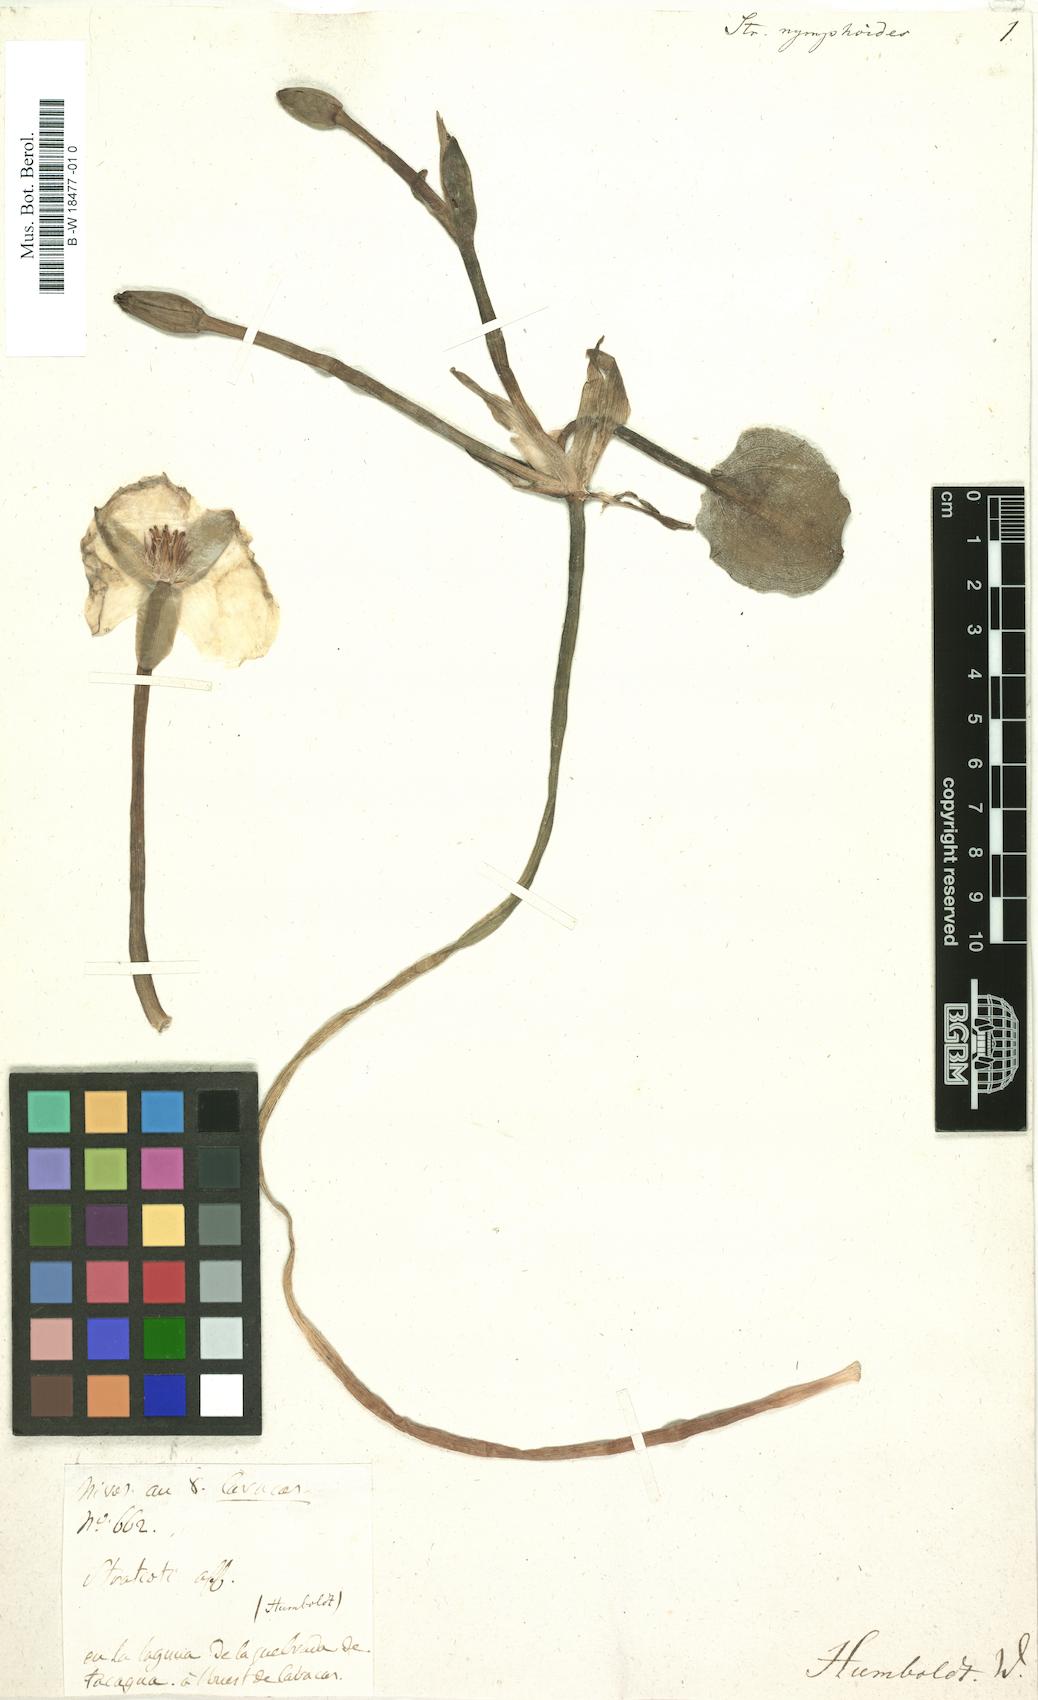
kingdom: Plantae
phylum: Tracheophyta
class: Liliopsida
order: Alismatales
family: Alismataceae
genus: Hydrocleys
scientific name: Hydrocleys nymphoides
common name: Water-poppy
